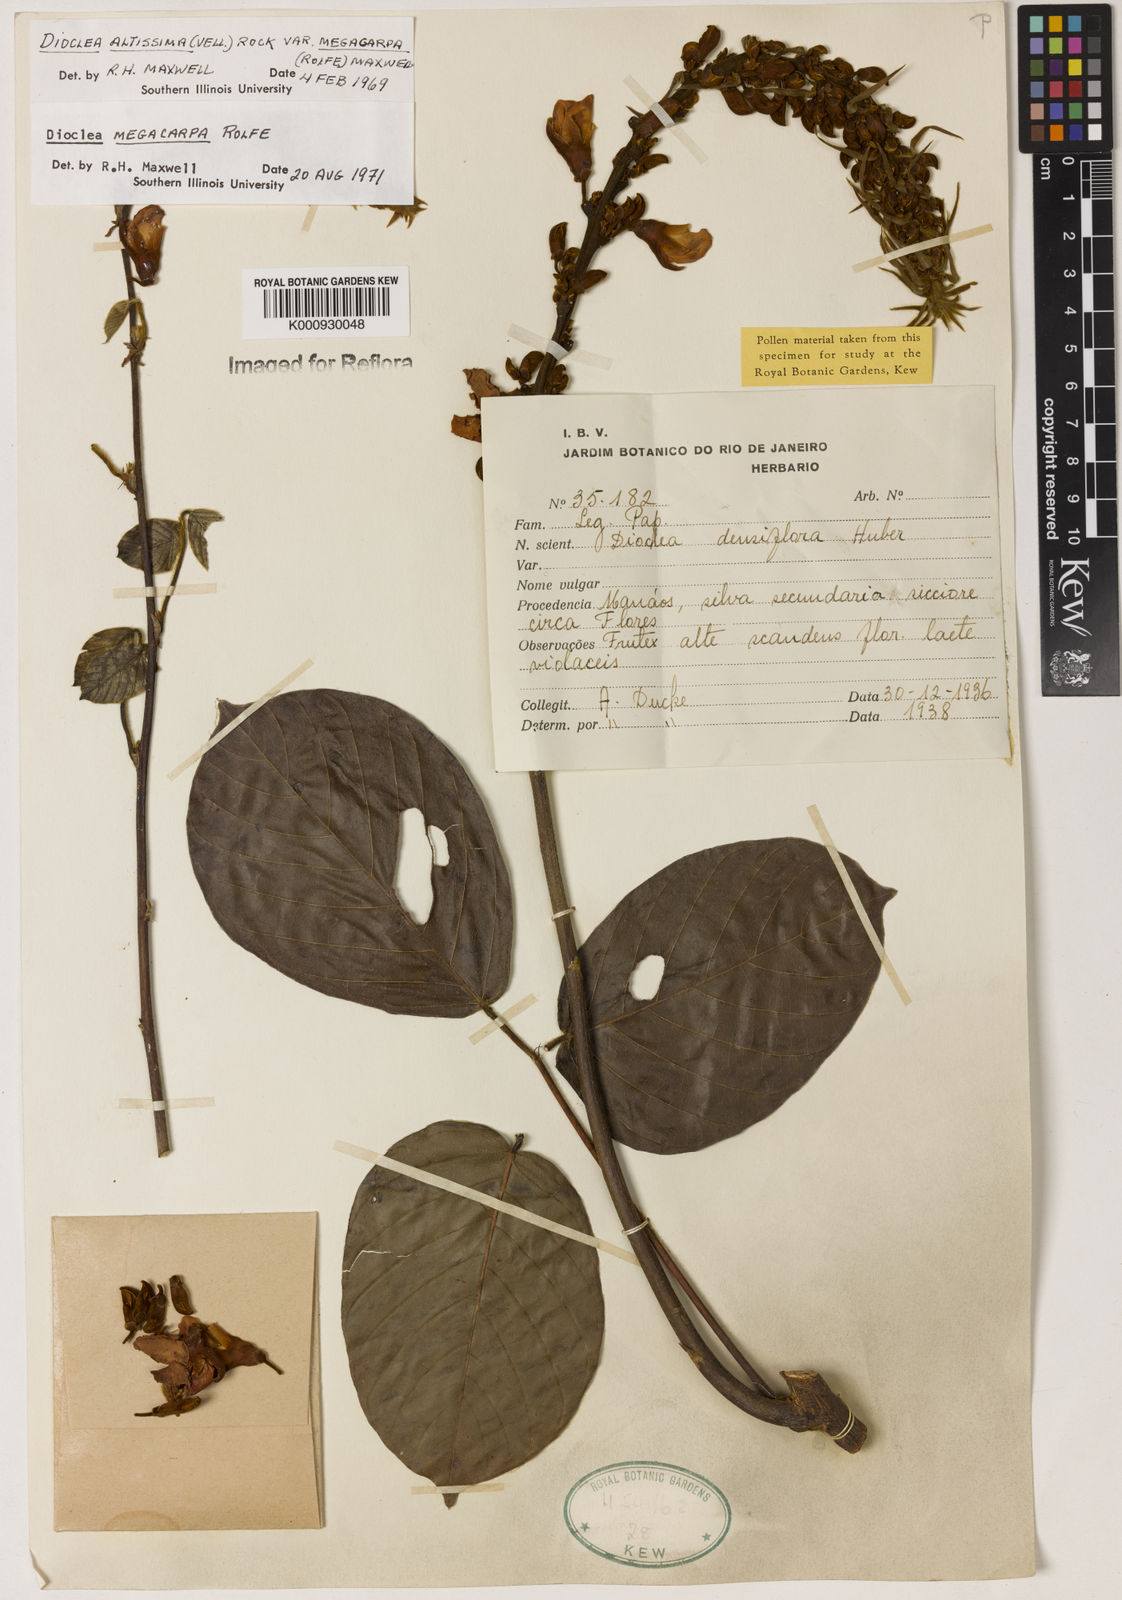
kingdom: Plantae
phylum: Tracheophyta
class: Magnoliopsida
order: Fabales
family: Fabaceae
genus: Macropsychanthus
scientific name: Macropsychanthus megacarpus
